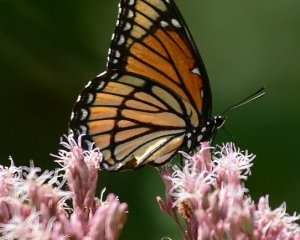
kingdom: Animalia
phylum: Arthropoda
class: Insecta
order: Lepidoptera
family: Nymphalidae
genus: Limenitis
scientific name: Limenitis archippus
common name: Viceroy
